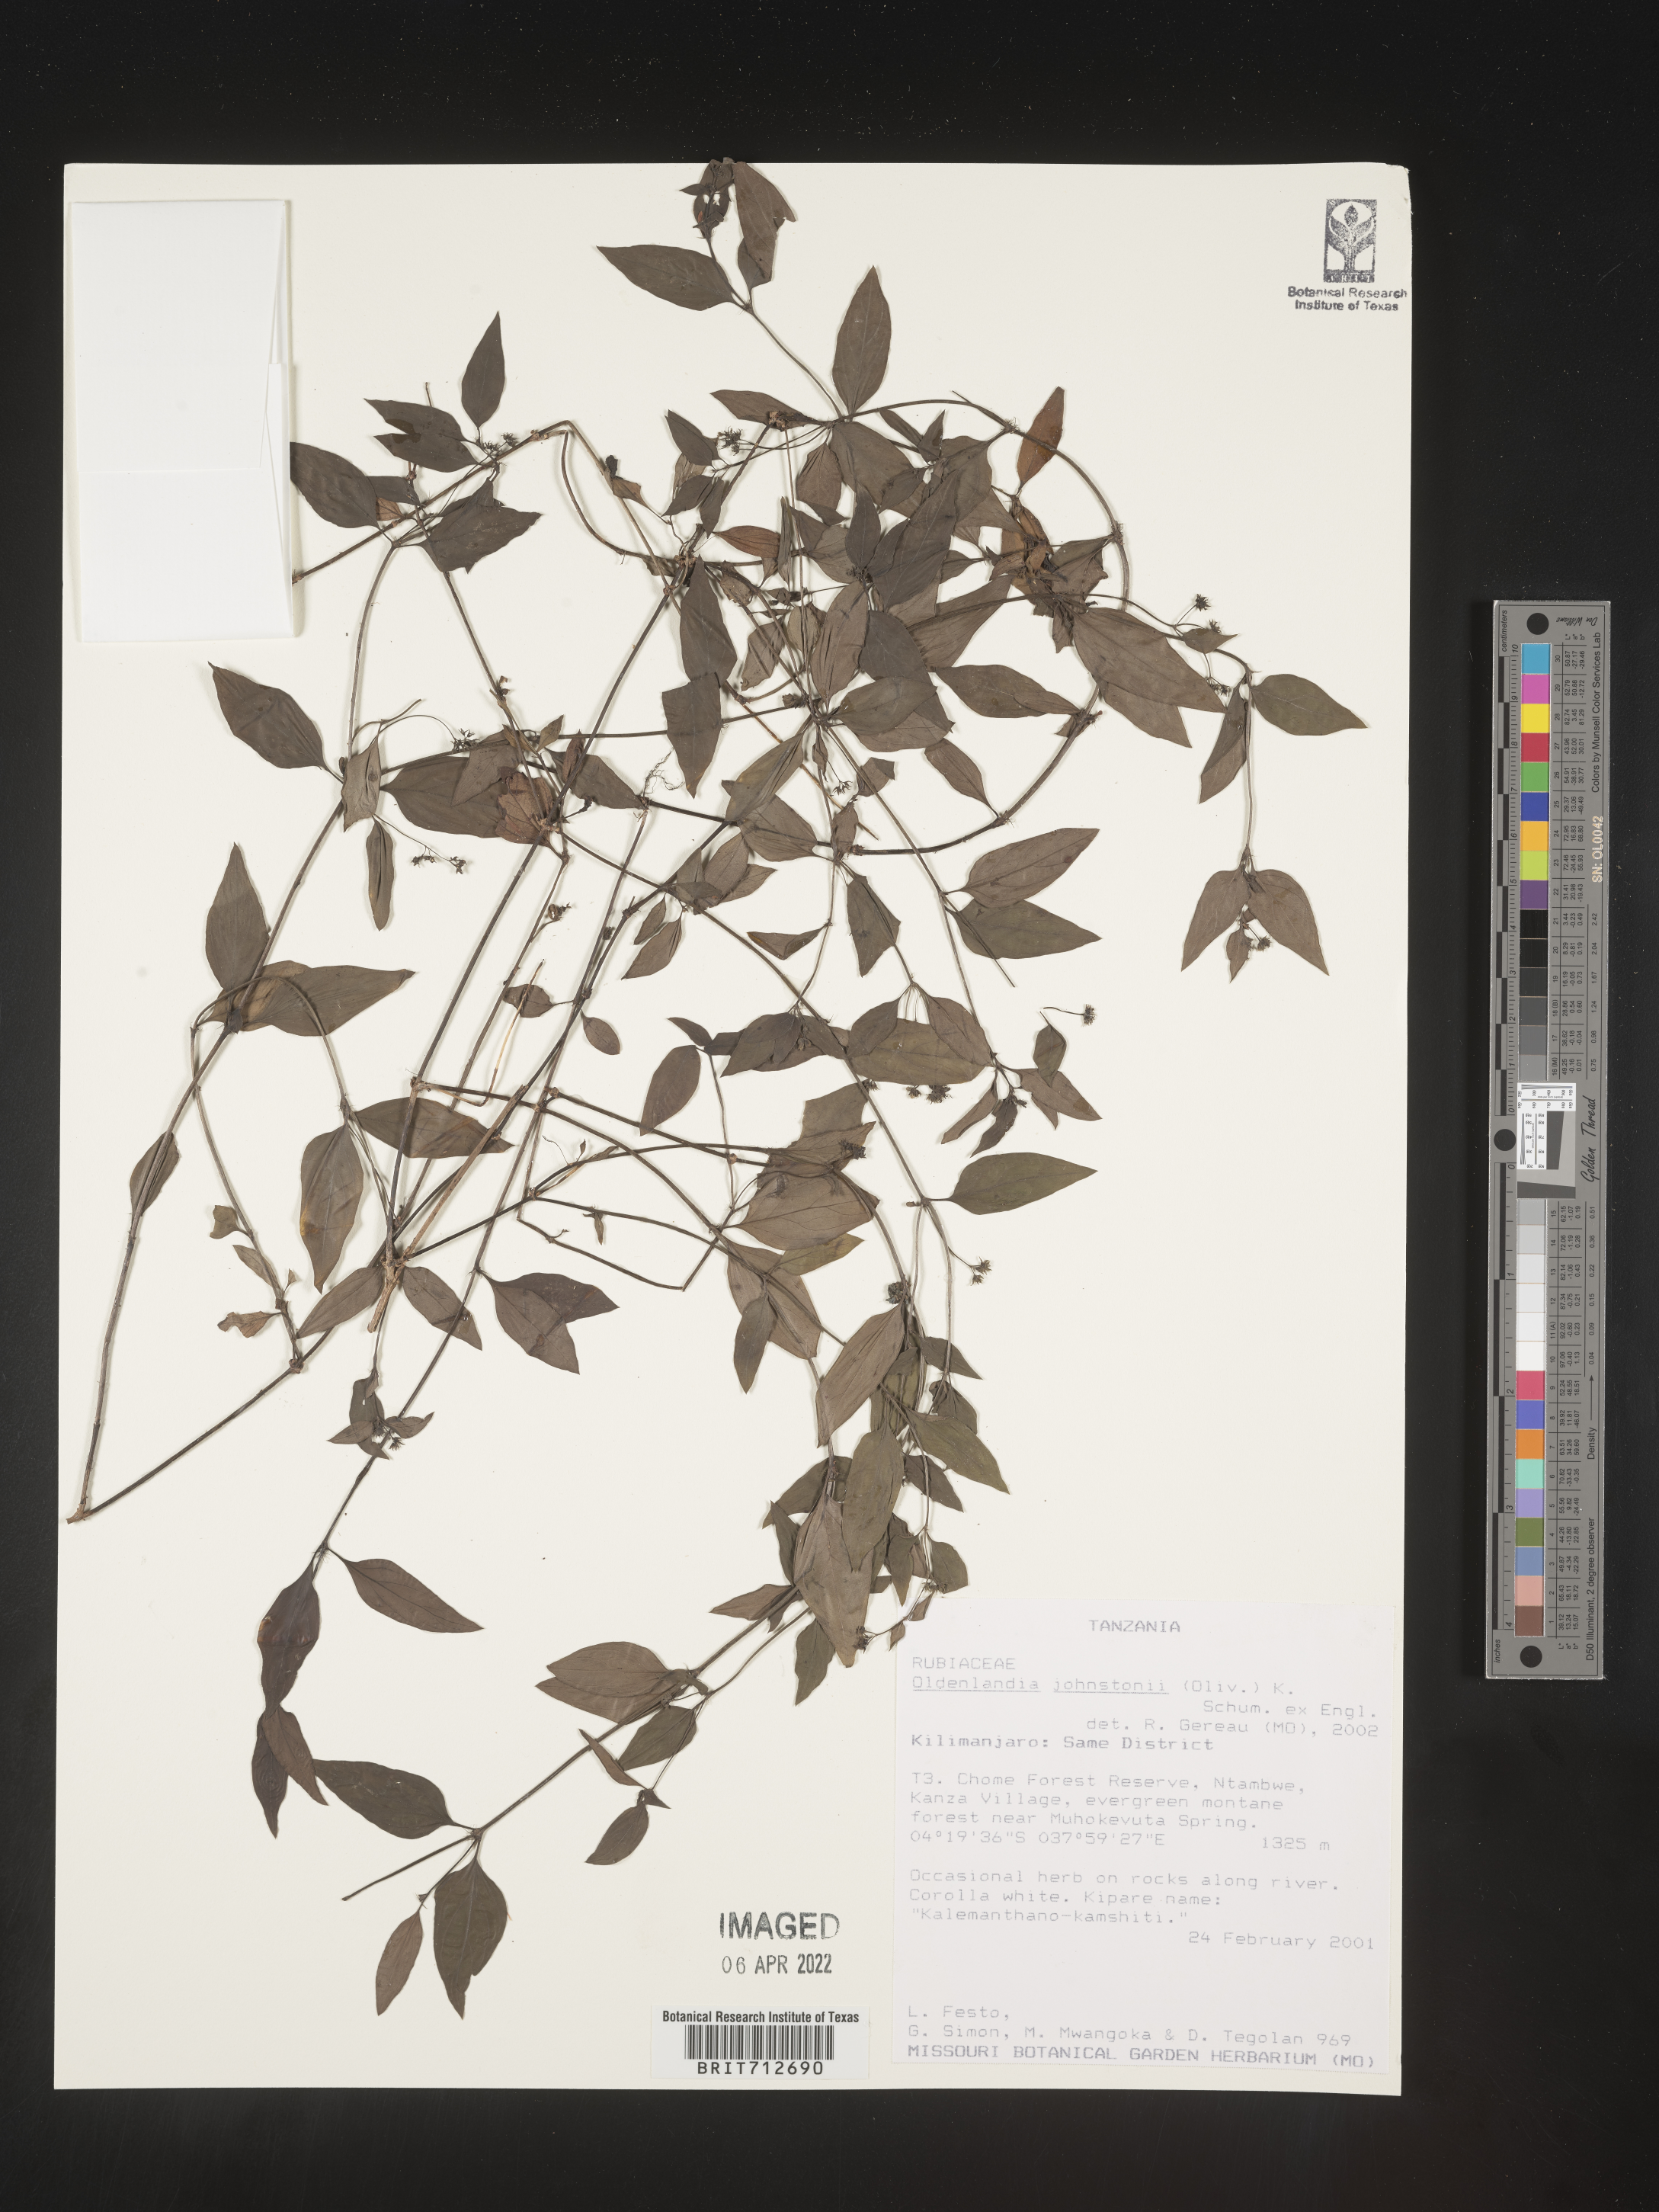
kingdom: Plantae
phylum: Tracheophyta
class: Magnoliopsida
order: Gentianales
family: Rubiaceae
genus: Oldenlandia
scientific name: Oldenlandia
